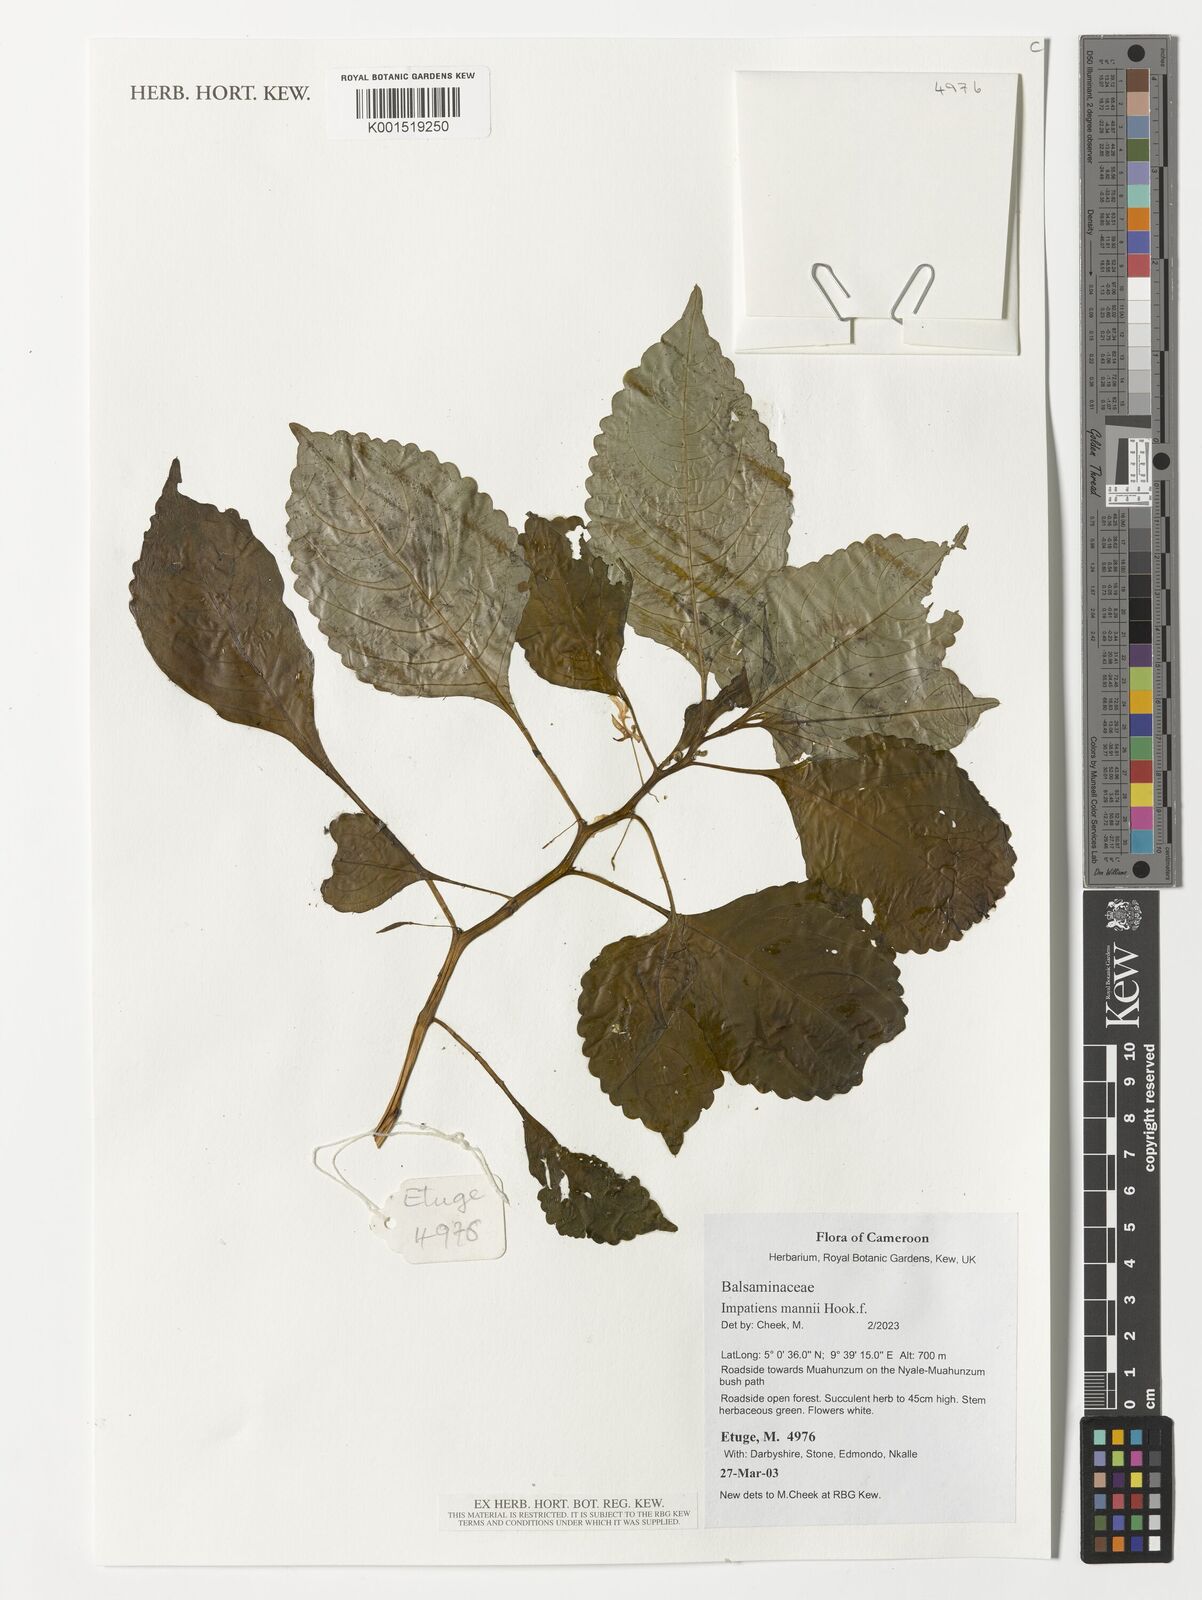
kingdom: Plantae
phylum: Tracheophyta
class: Magnoliopsida
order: Ericales
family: Balsaminaceae
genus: Impatiens
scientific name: Impatiens mannii
